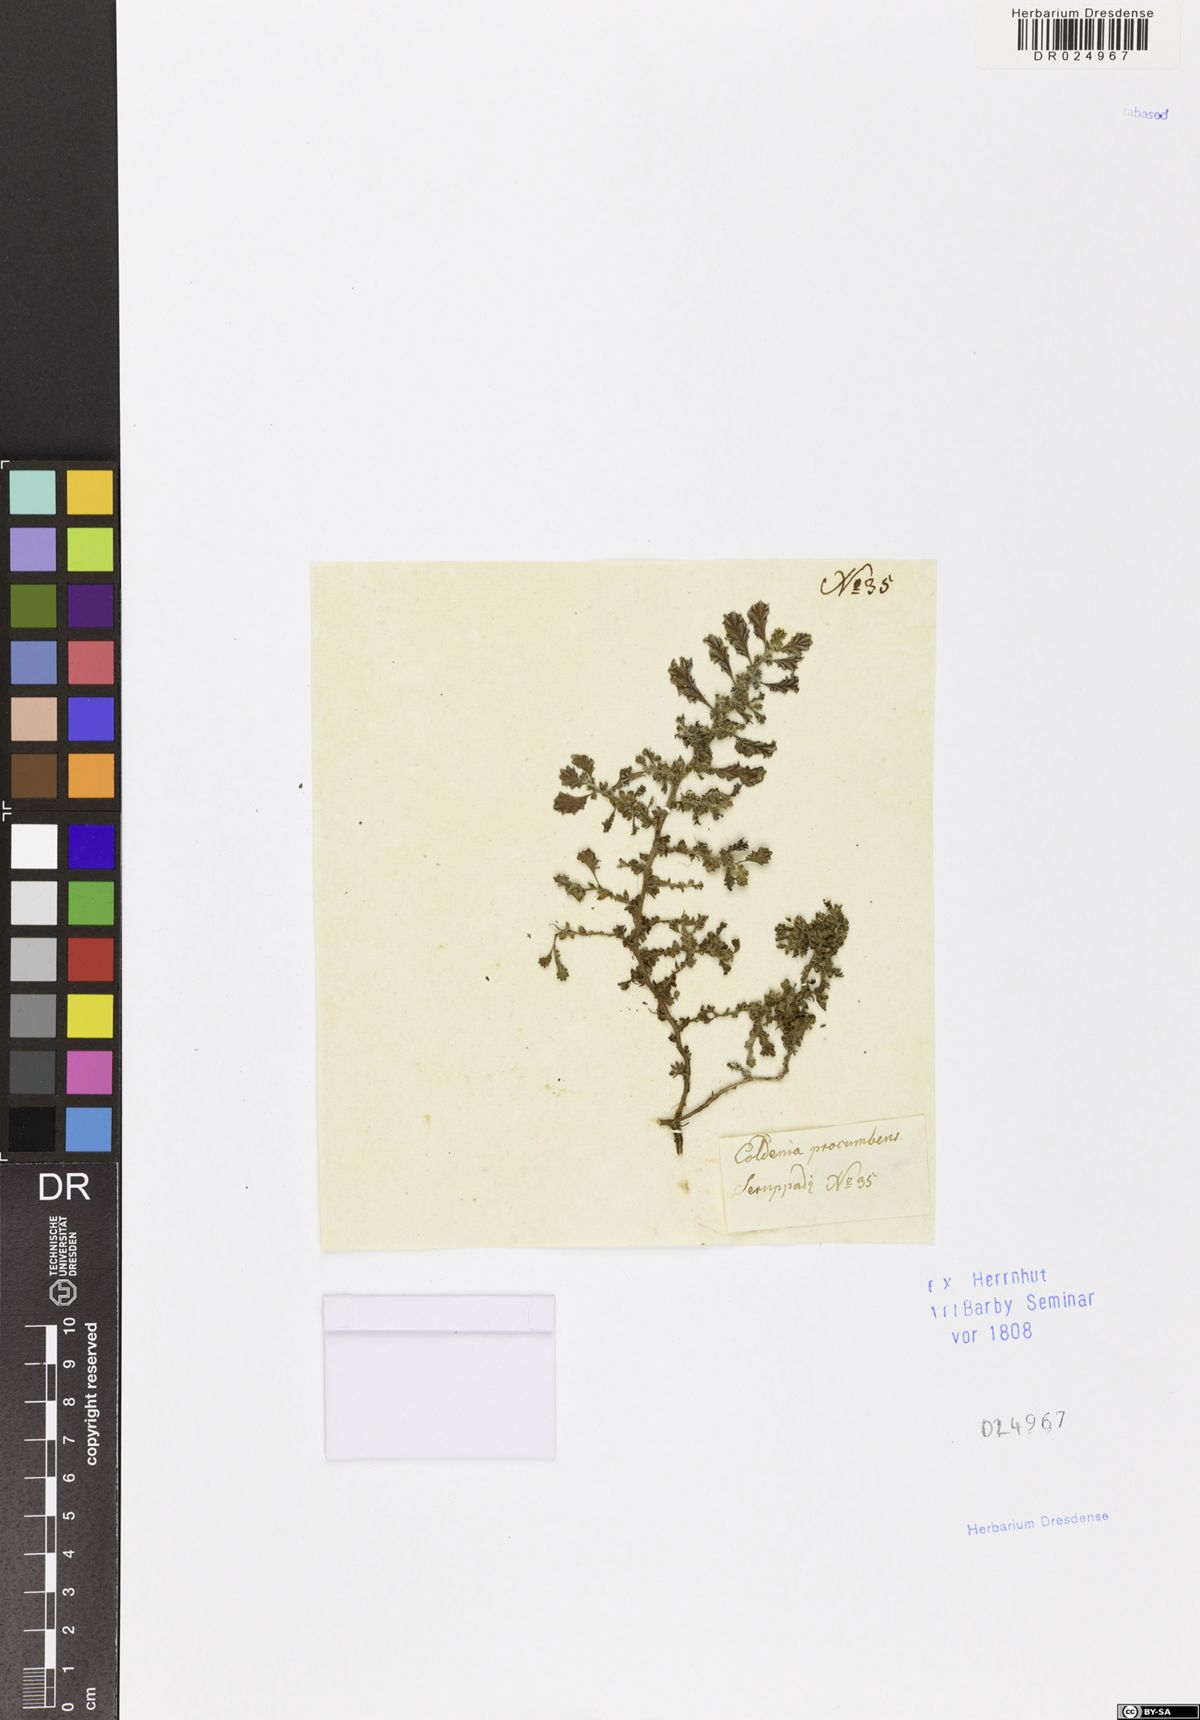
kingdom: Plantae
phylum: Tracheophyta
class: Magnoliopsida
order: Boraginales
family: Coldeniaceae
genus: Coldenia
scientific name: Coldenia procumbens
